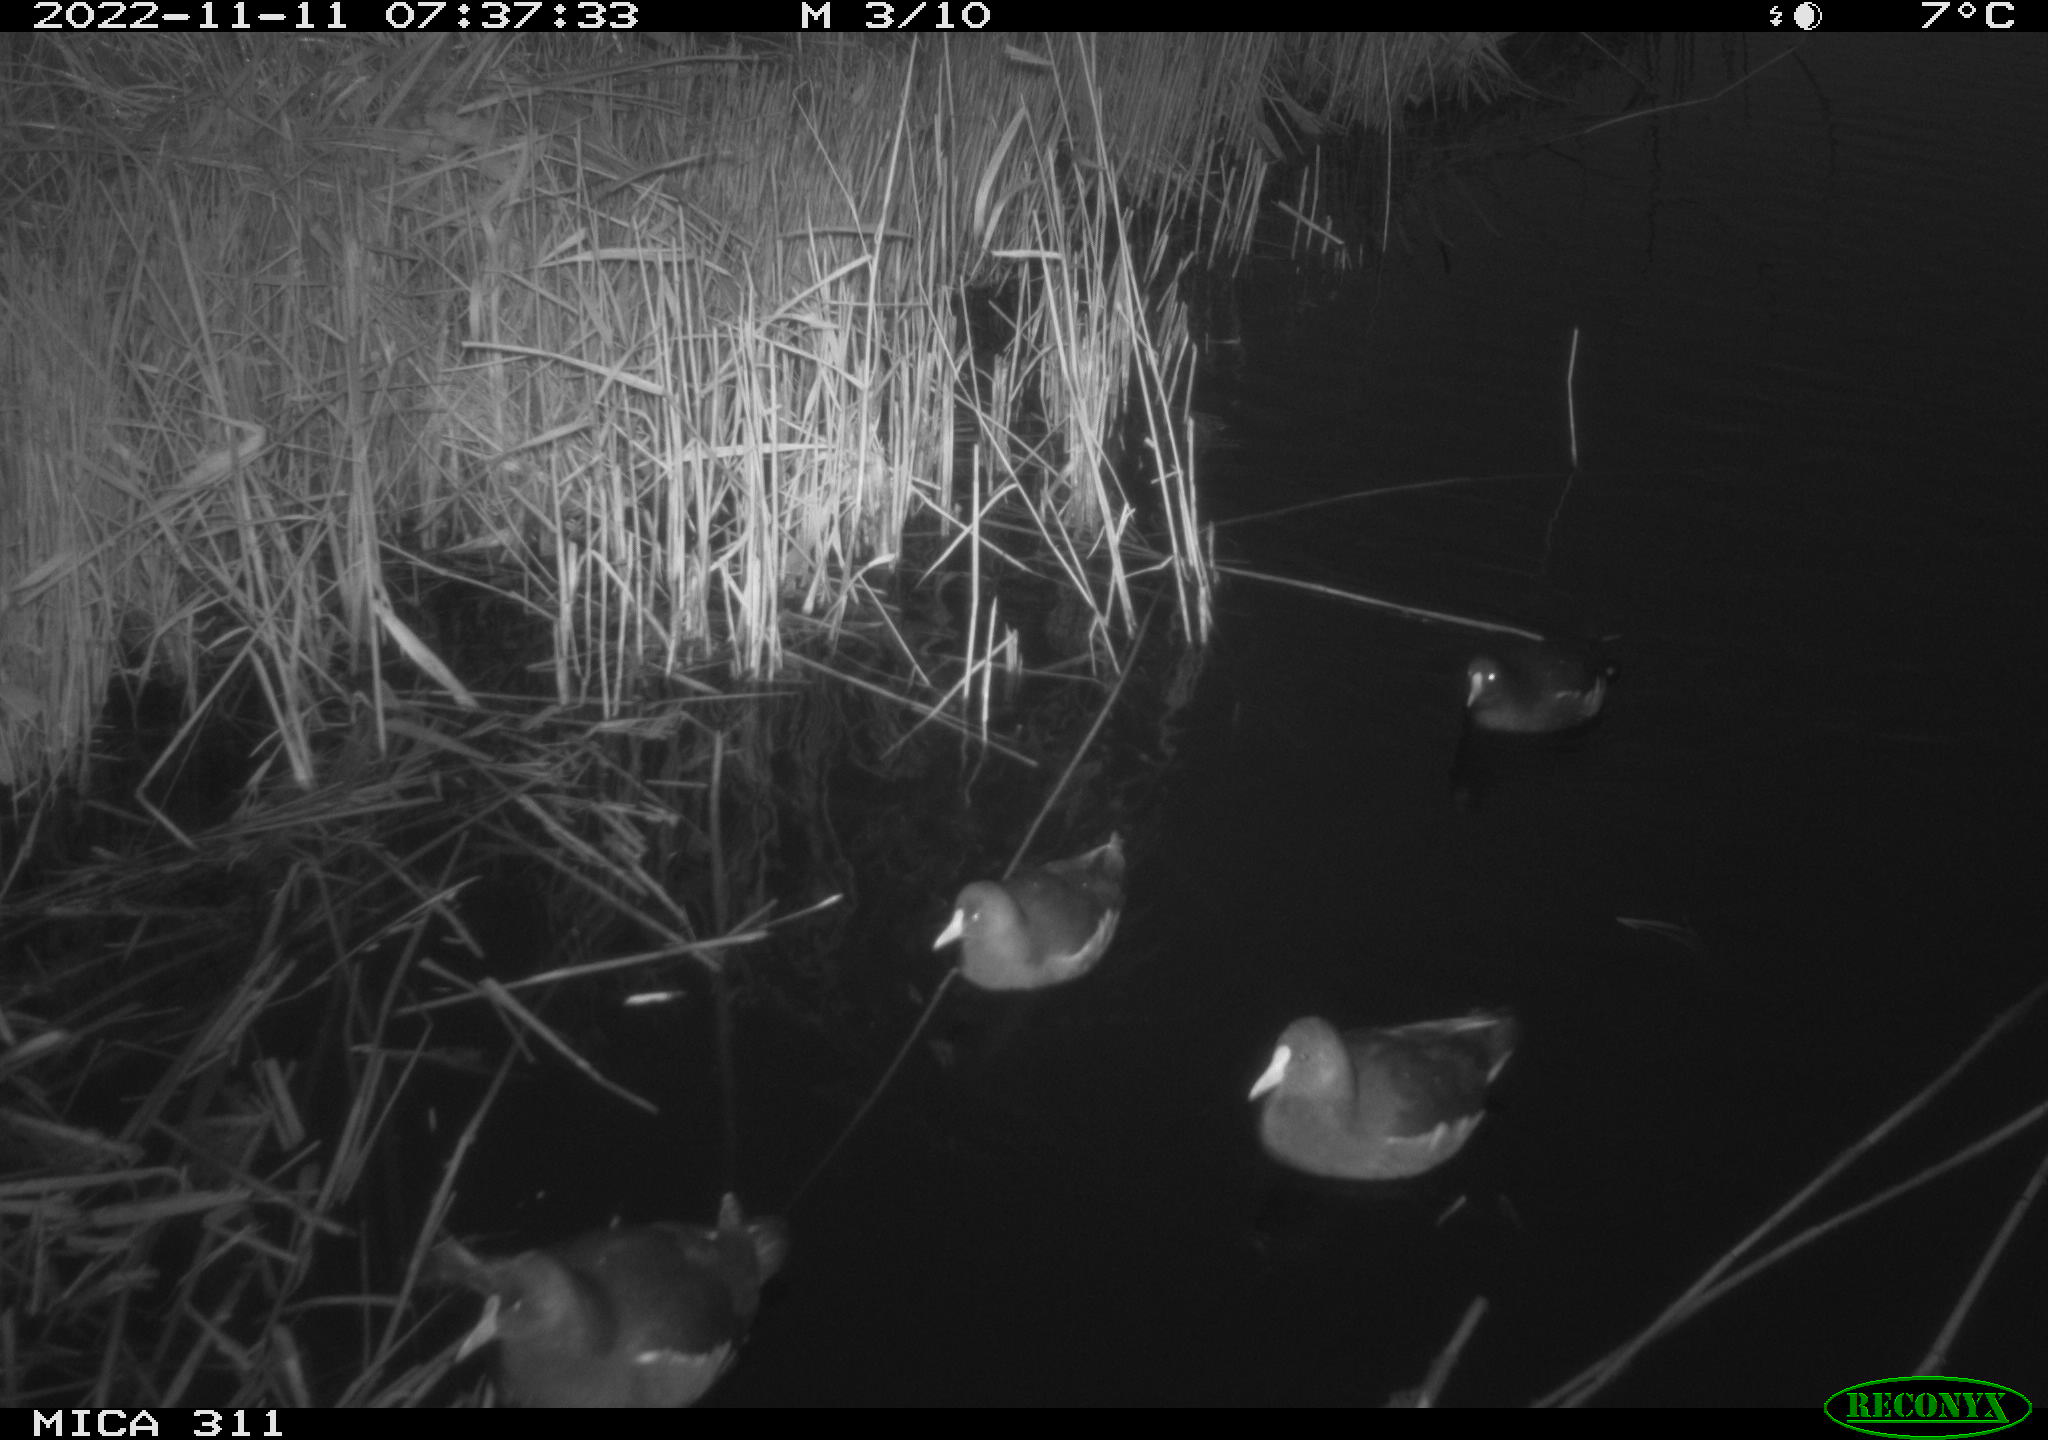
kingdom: Animalia
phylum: Chordata
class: Aves
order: Gruiformes
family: Rallidae
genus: Gallinula
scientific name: Gallinula chloropus
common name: Common moorhen
